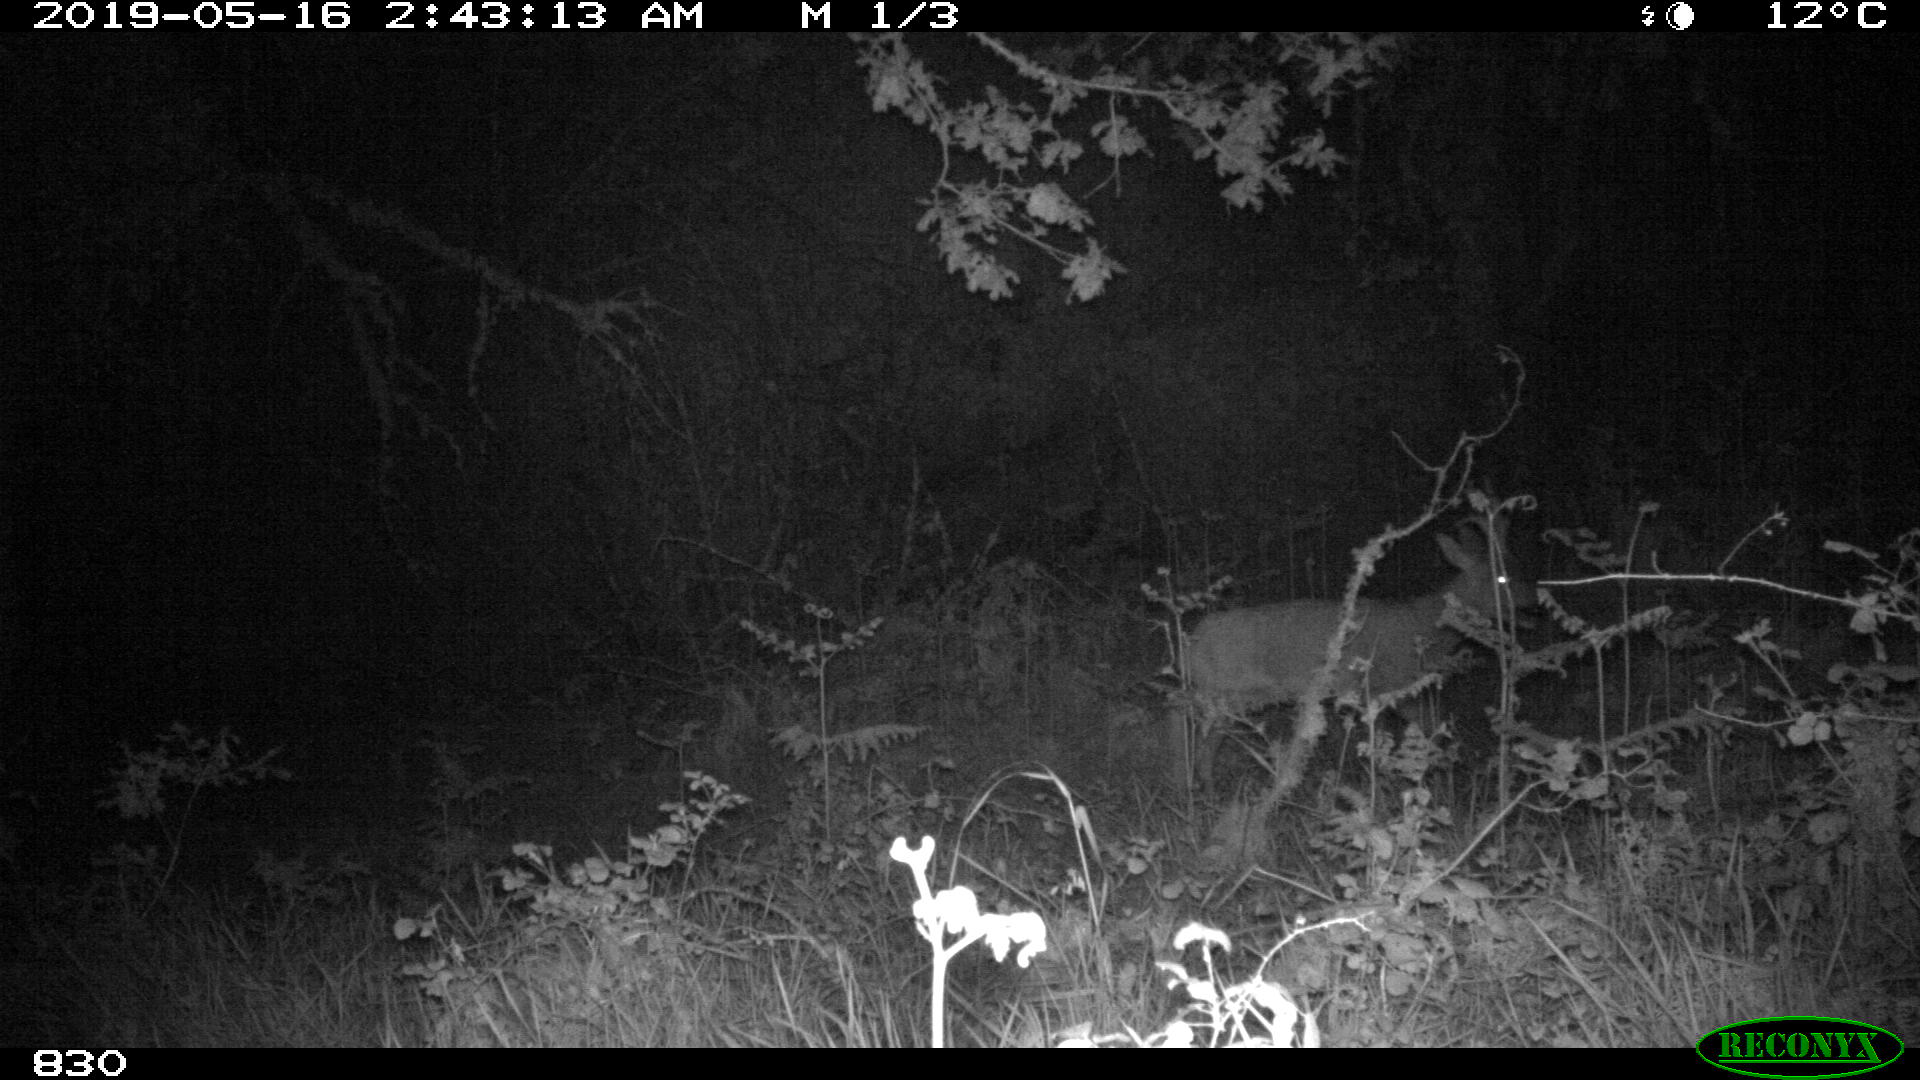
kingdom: Animalia
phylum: Chordata
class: Mammalia
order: Artiodactyla
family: Cervidae
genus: Capreolus
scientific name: Capreolus capreolus
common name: Western roe deer
